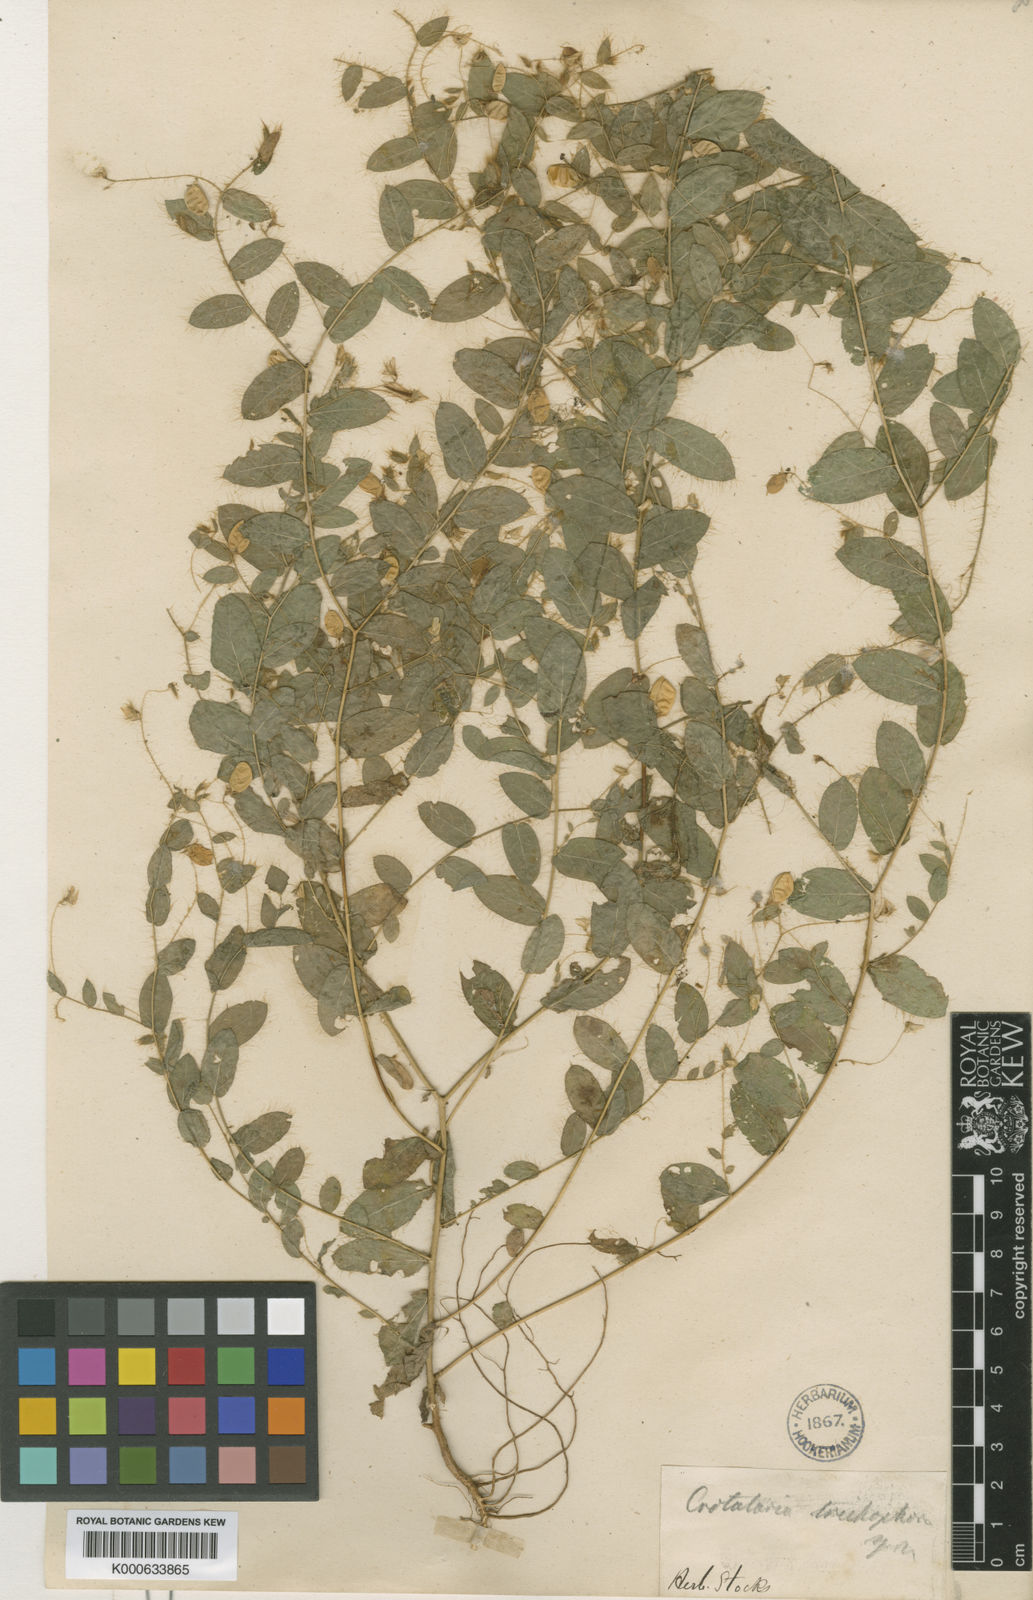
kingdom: Plantae
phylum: Tracheophyta
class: Magnoliopsida
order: Fabales
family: Fabaceae
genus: Crotalaria
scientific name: Crotalaria filipes
